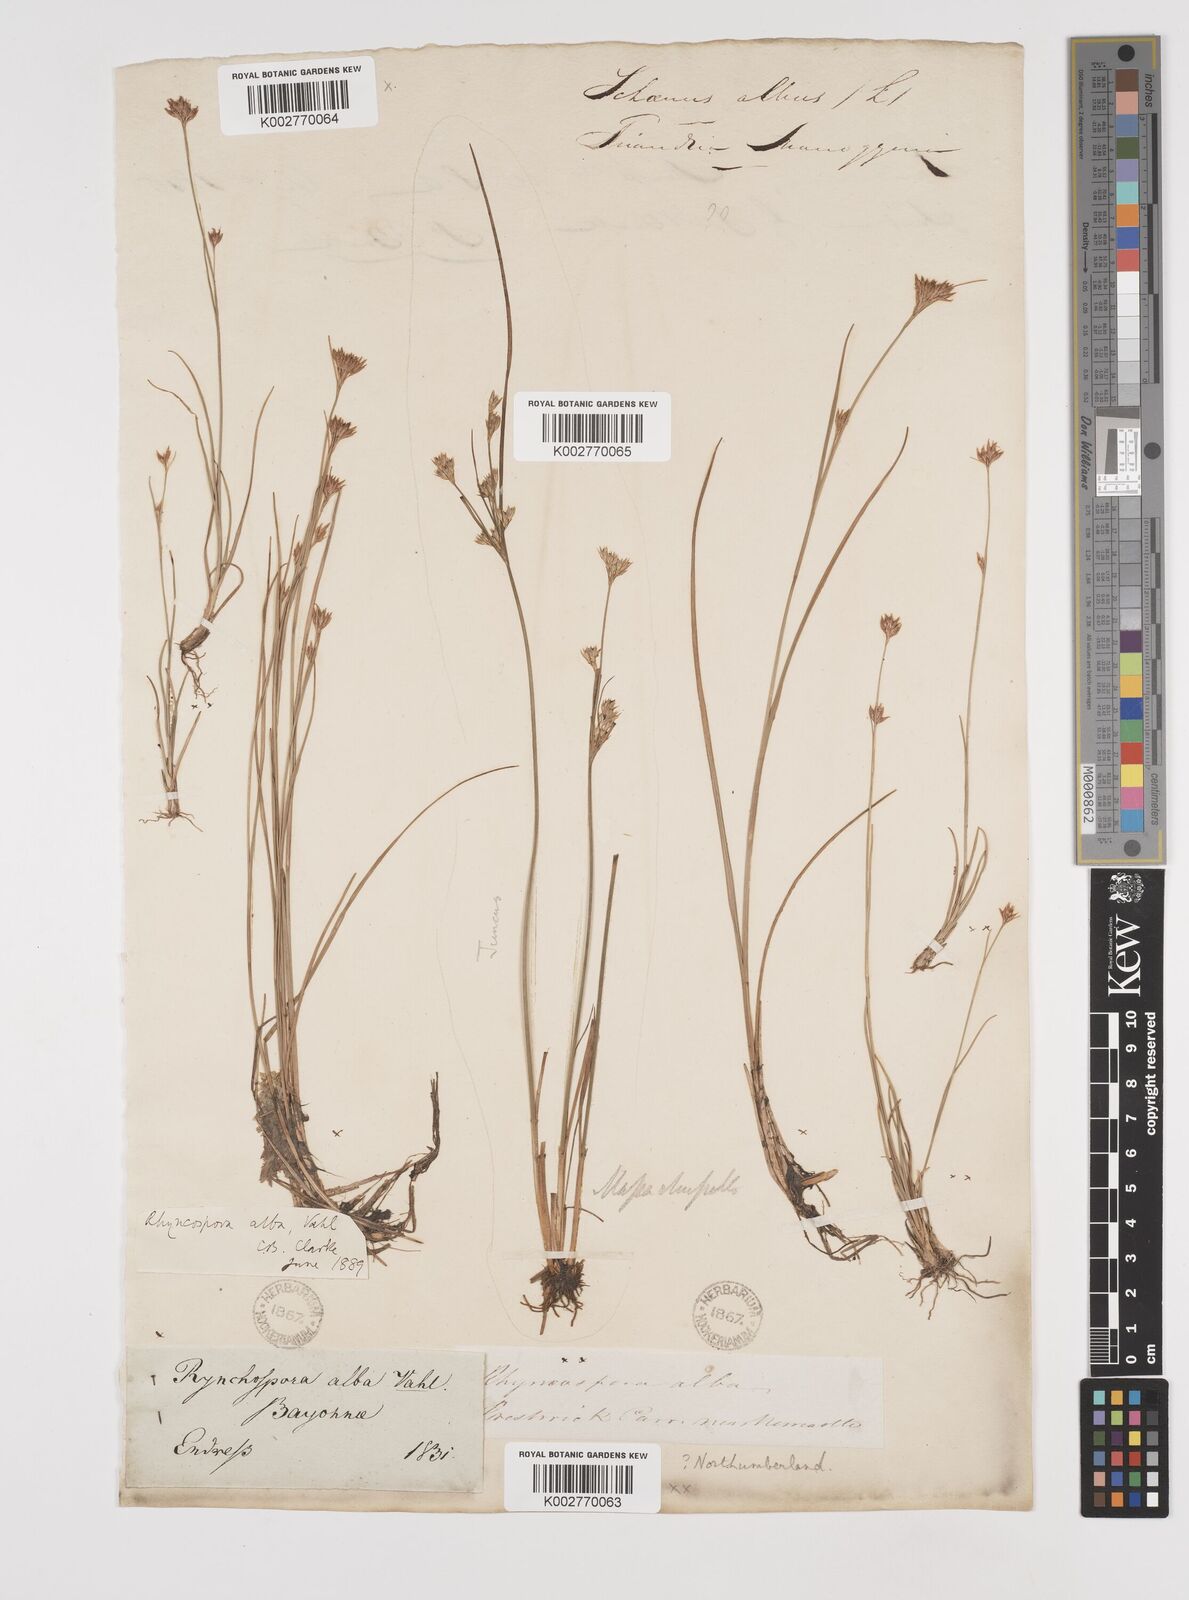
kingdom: Plantae
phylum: Tracheophyta
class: Liliopsida
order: Poales
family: Cyperaceae
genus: Rhynchospora
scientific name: Rhynchospora alba
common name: White beak-sedge
